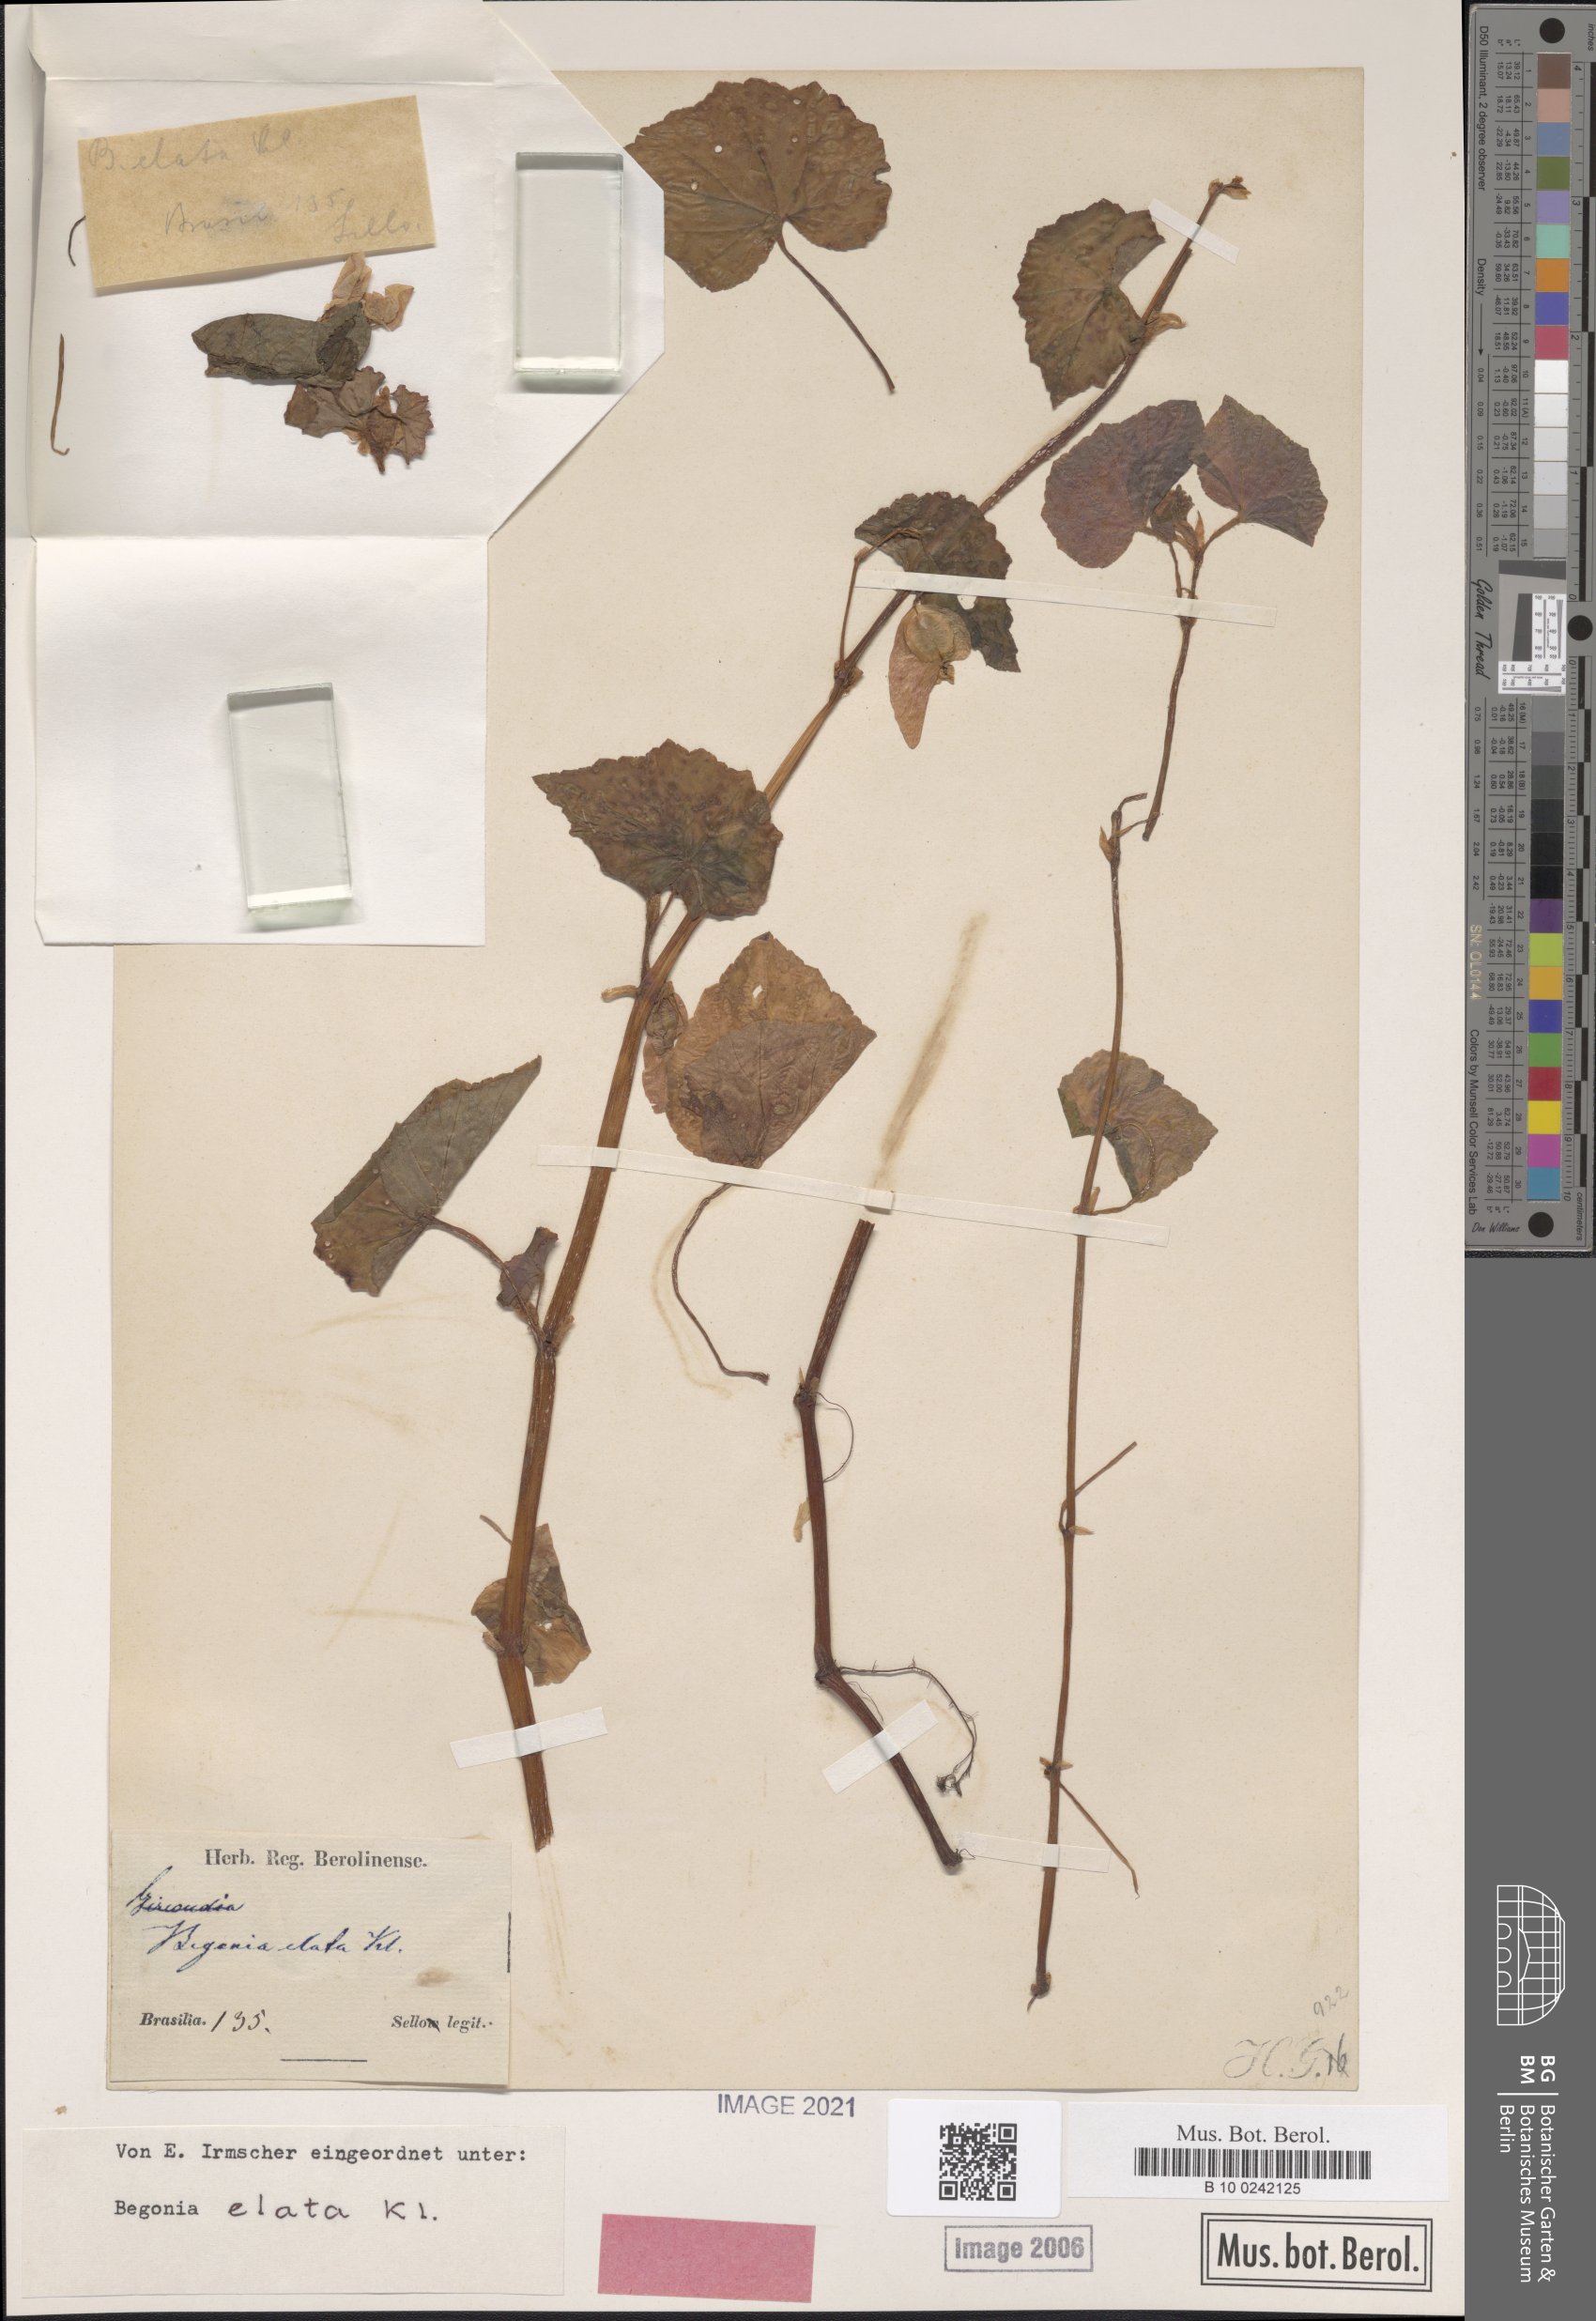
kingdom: Plantae
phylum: Tracheophyta
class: Magnoliopsida
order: Cucurbitales
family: Begoniaceae
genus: Begonia
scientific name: Begonia fischeri
